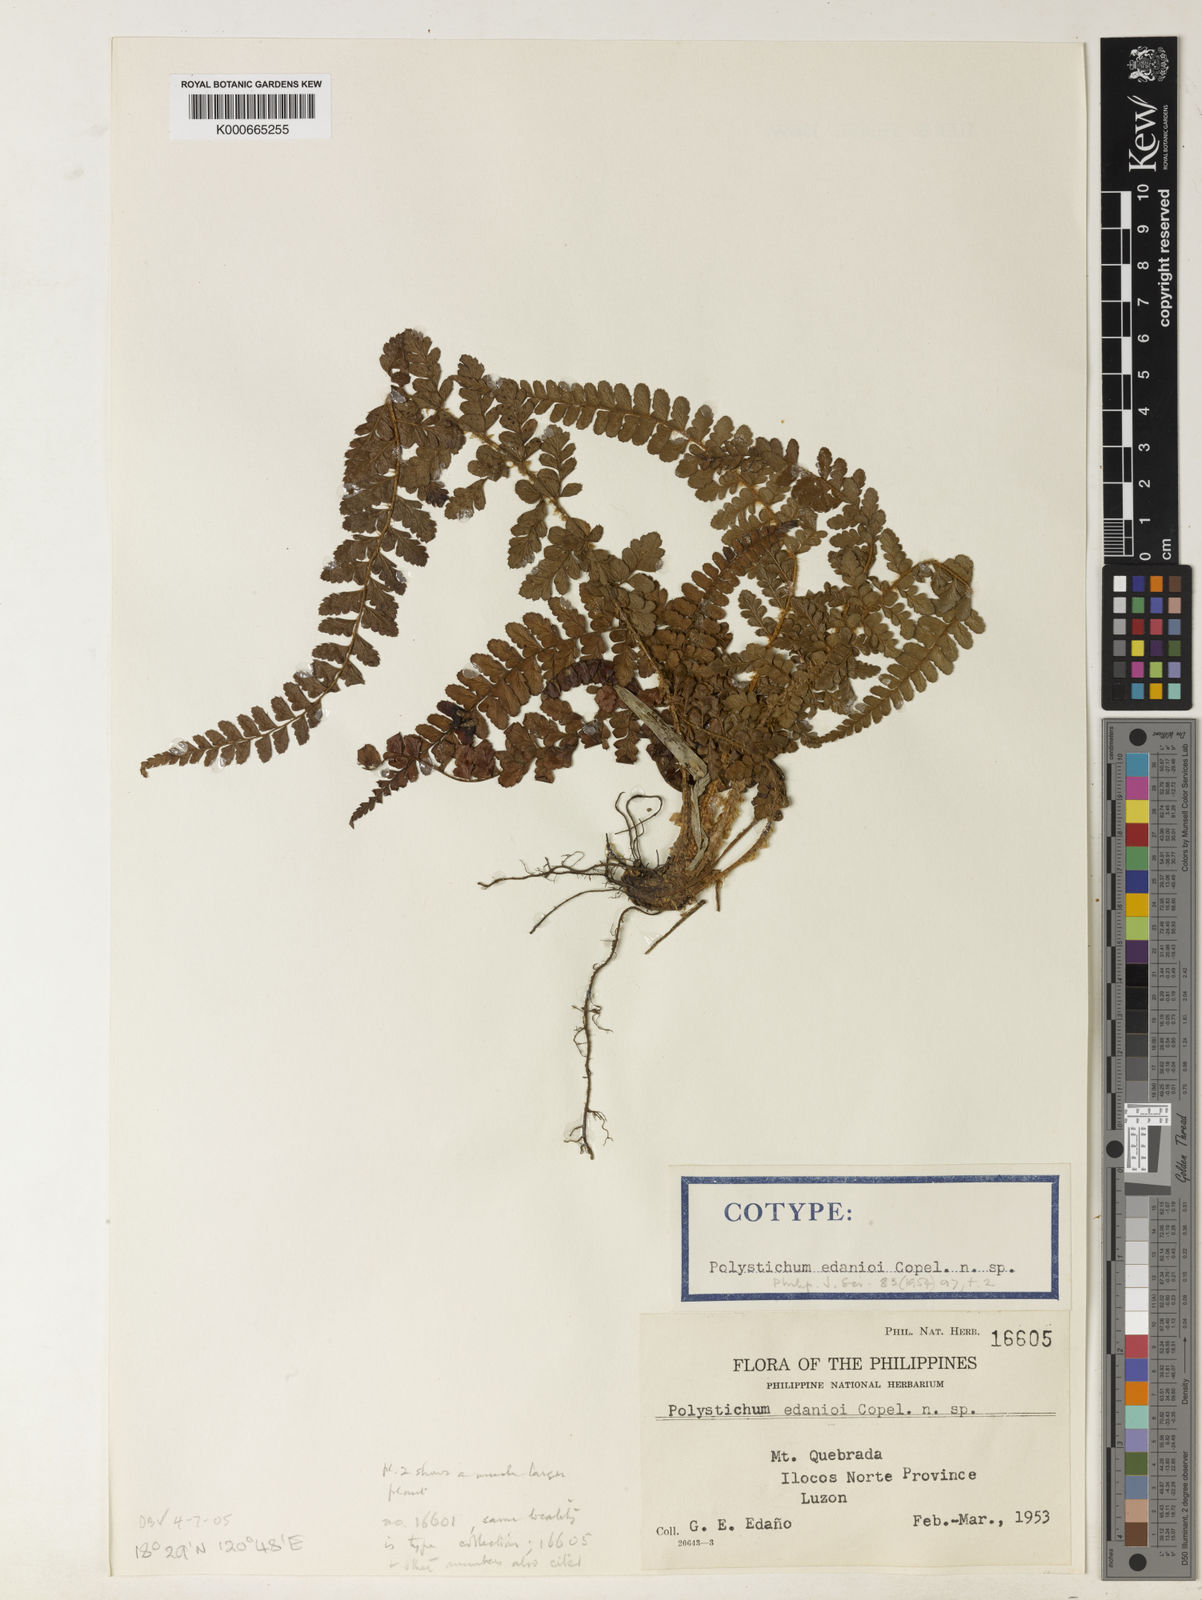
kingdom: Plantae
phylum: Tracheophyta
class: Polypodiopsida
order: Polypodiales
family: Dryopteridaceae
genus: Dryopteris
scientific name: Dryopteris filix-mas
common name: Male fern
